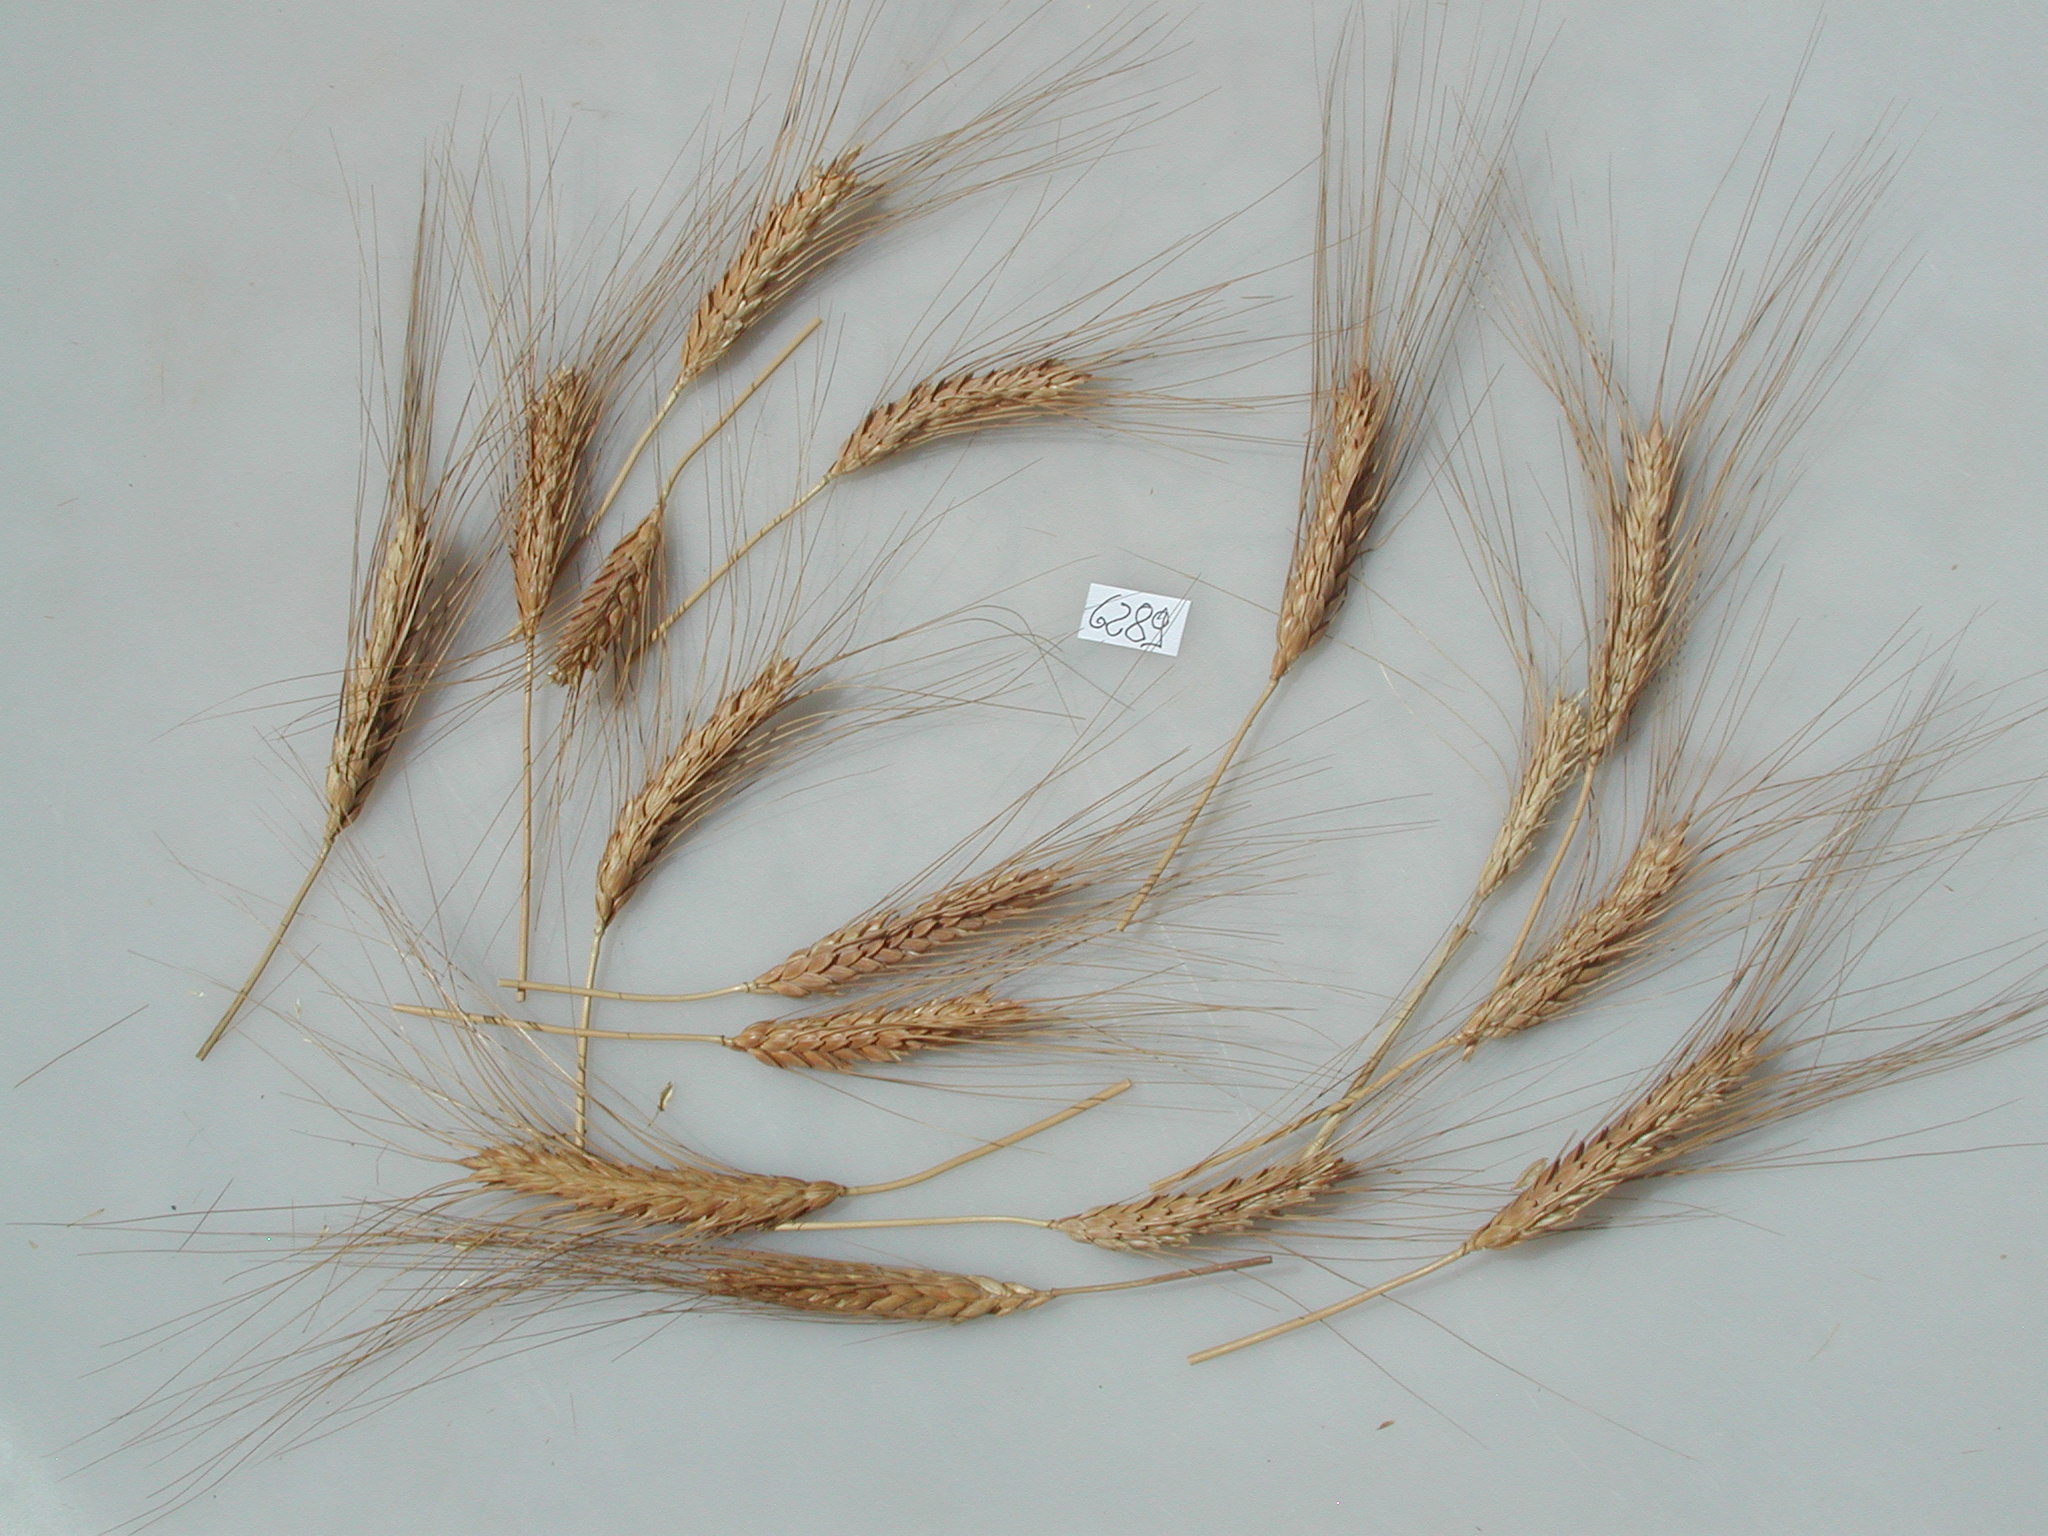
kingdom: Plantae
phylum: Tracheophyta
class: Liliopsida
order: Poales
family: Poaceae
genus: Triticum
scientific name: Triticum turgidum
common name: Wheat
